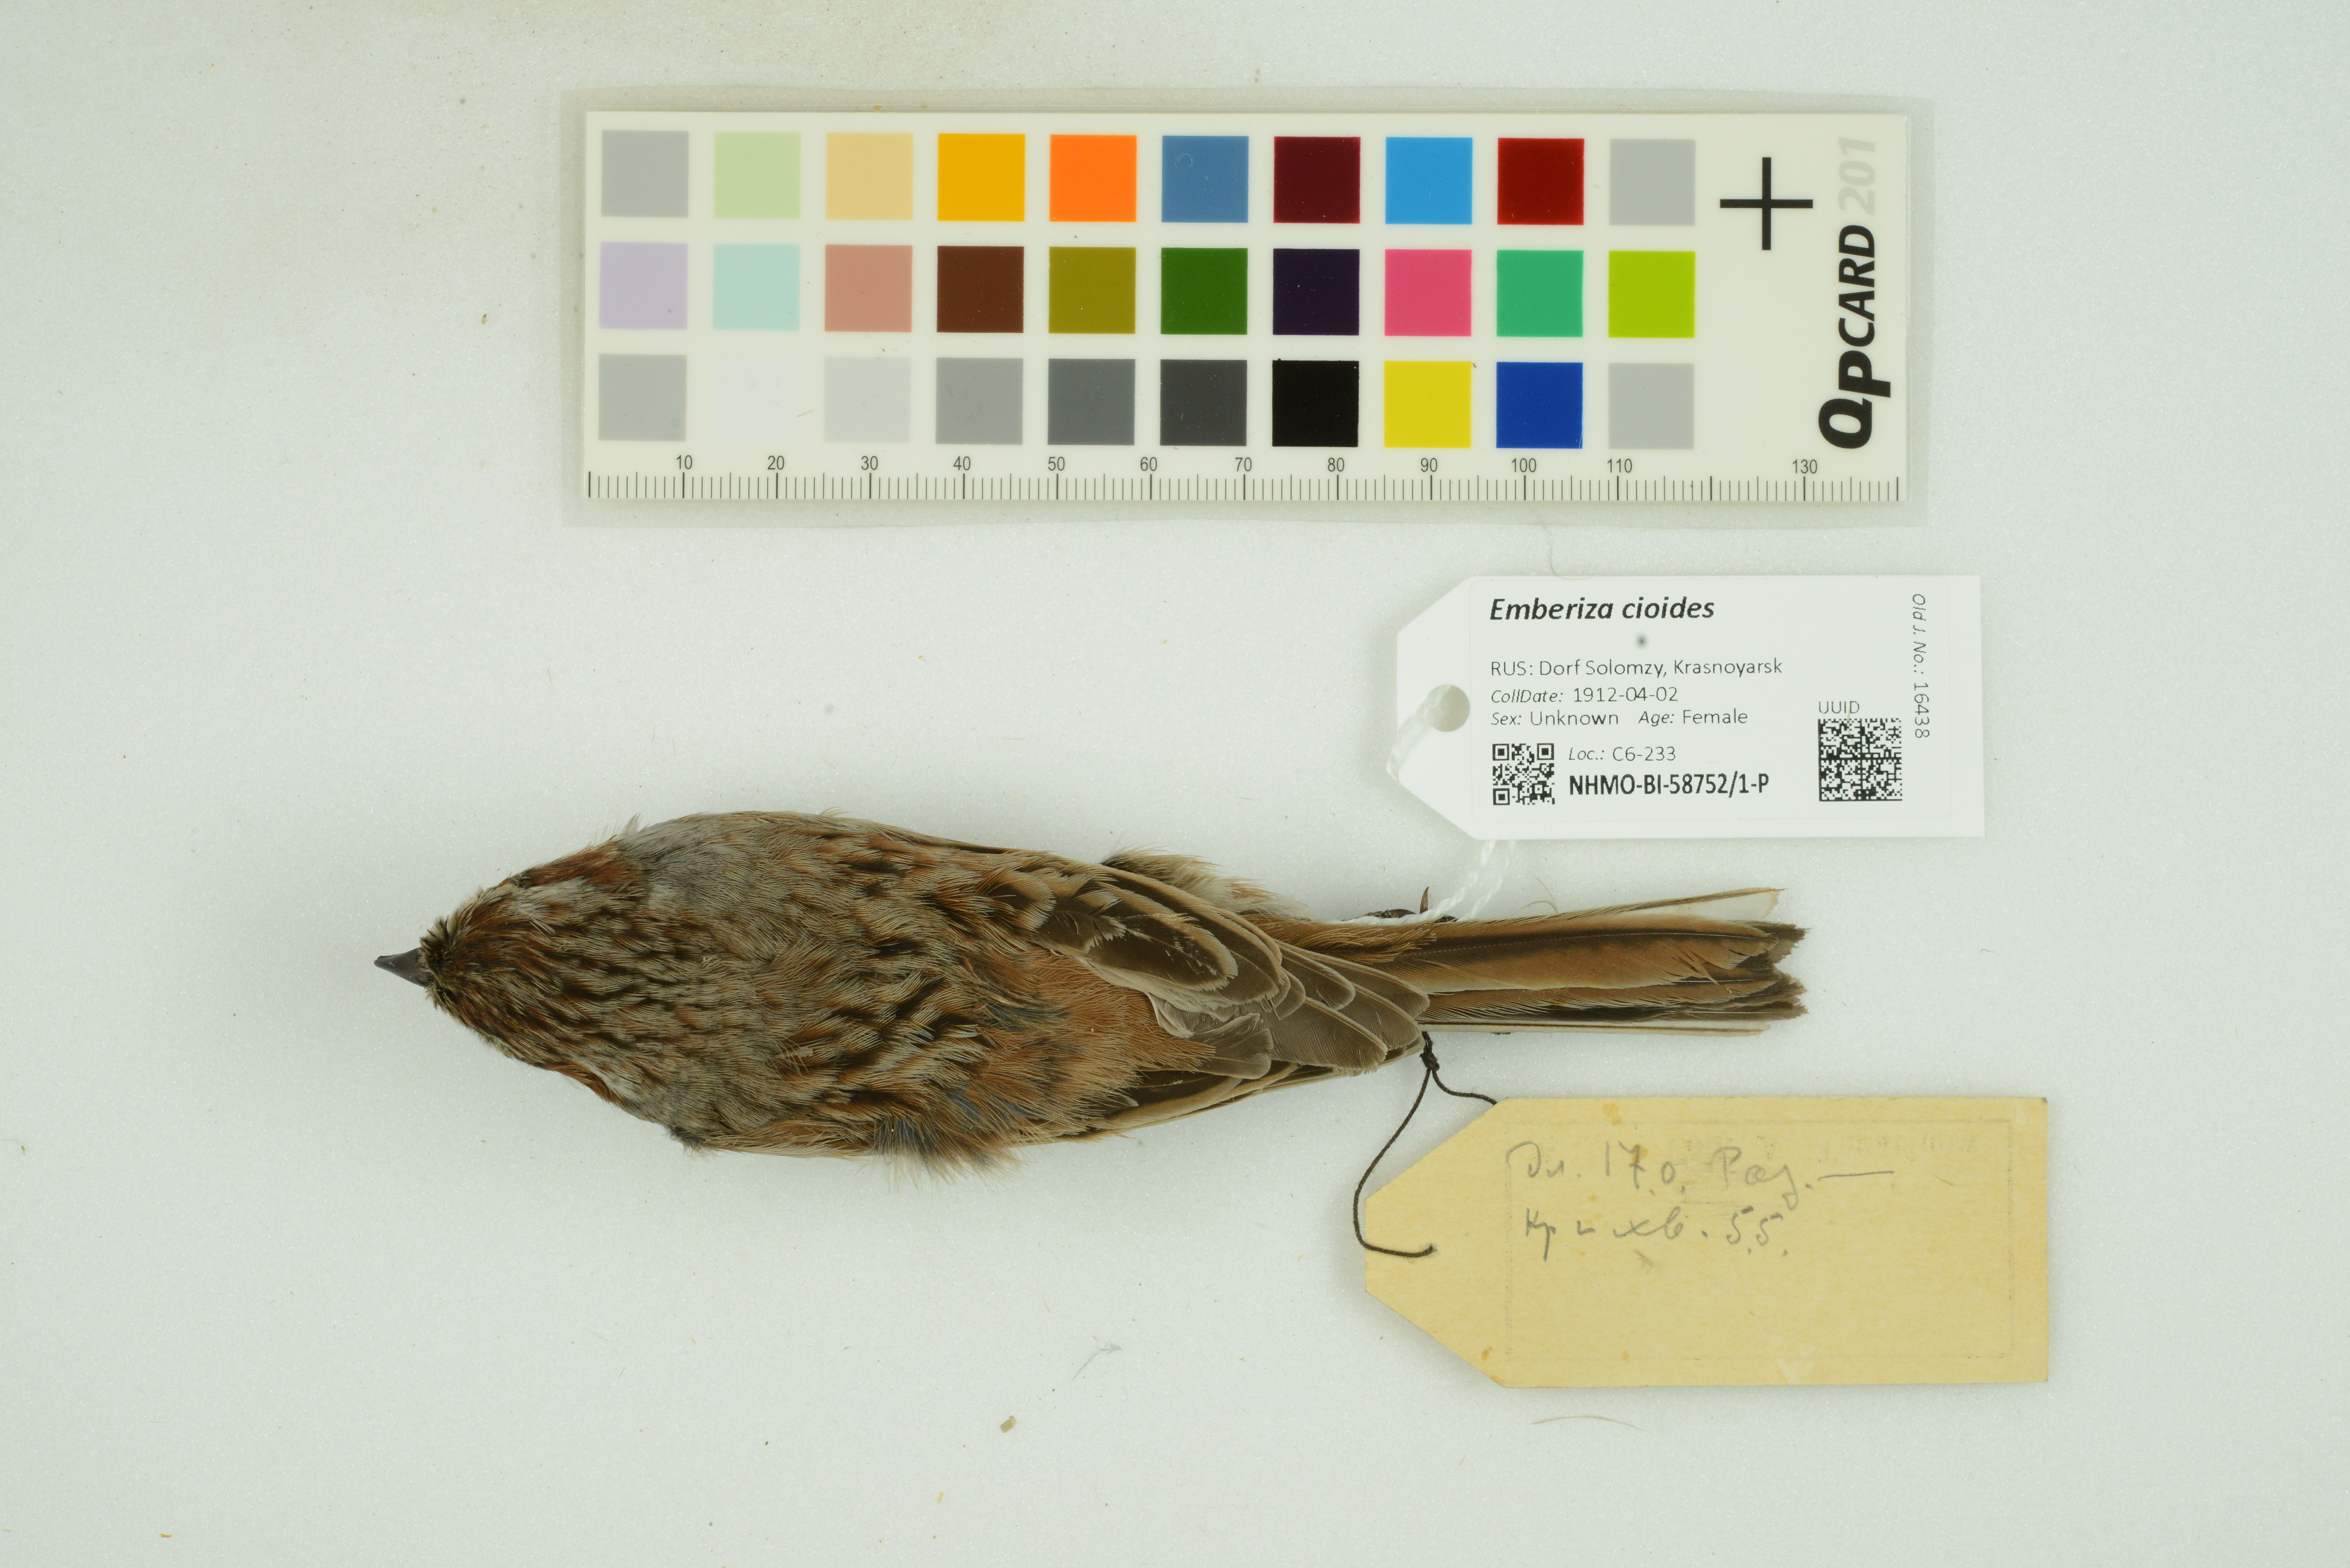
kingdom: Animalia
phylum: Chordata
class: Aves
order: Passeriformes
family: Emberizidae
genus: Emberiza
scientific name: Emberiza cioides
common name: Meadow bunting
